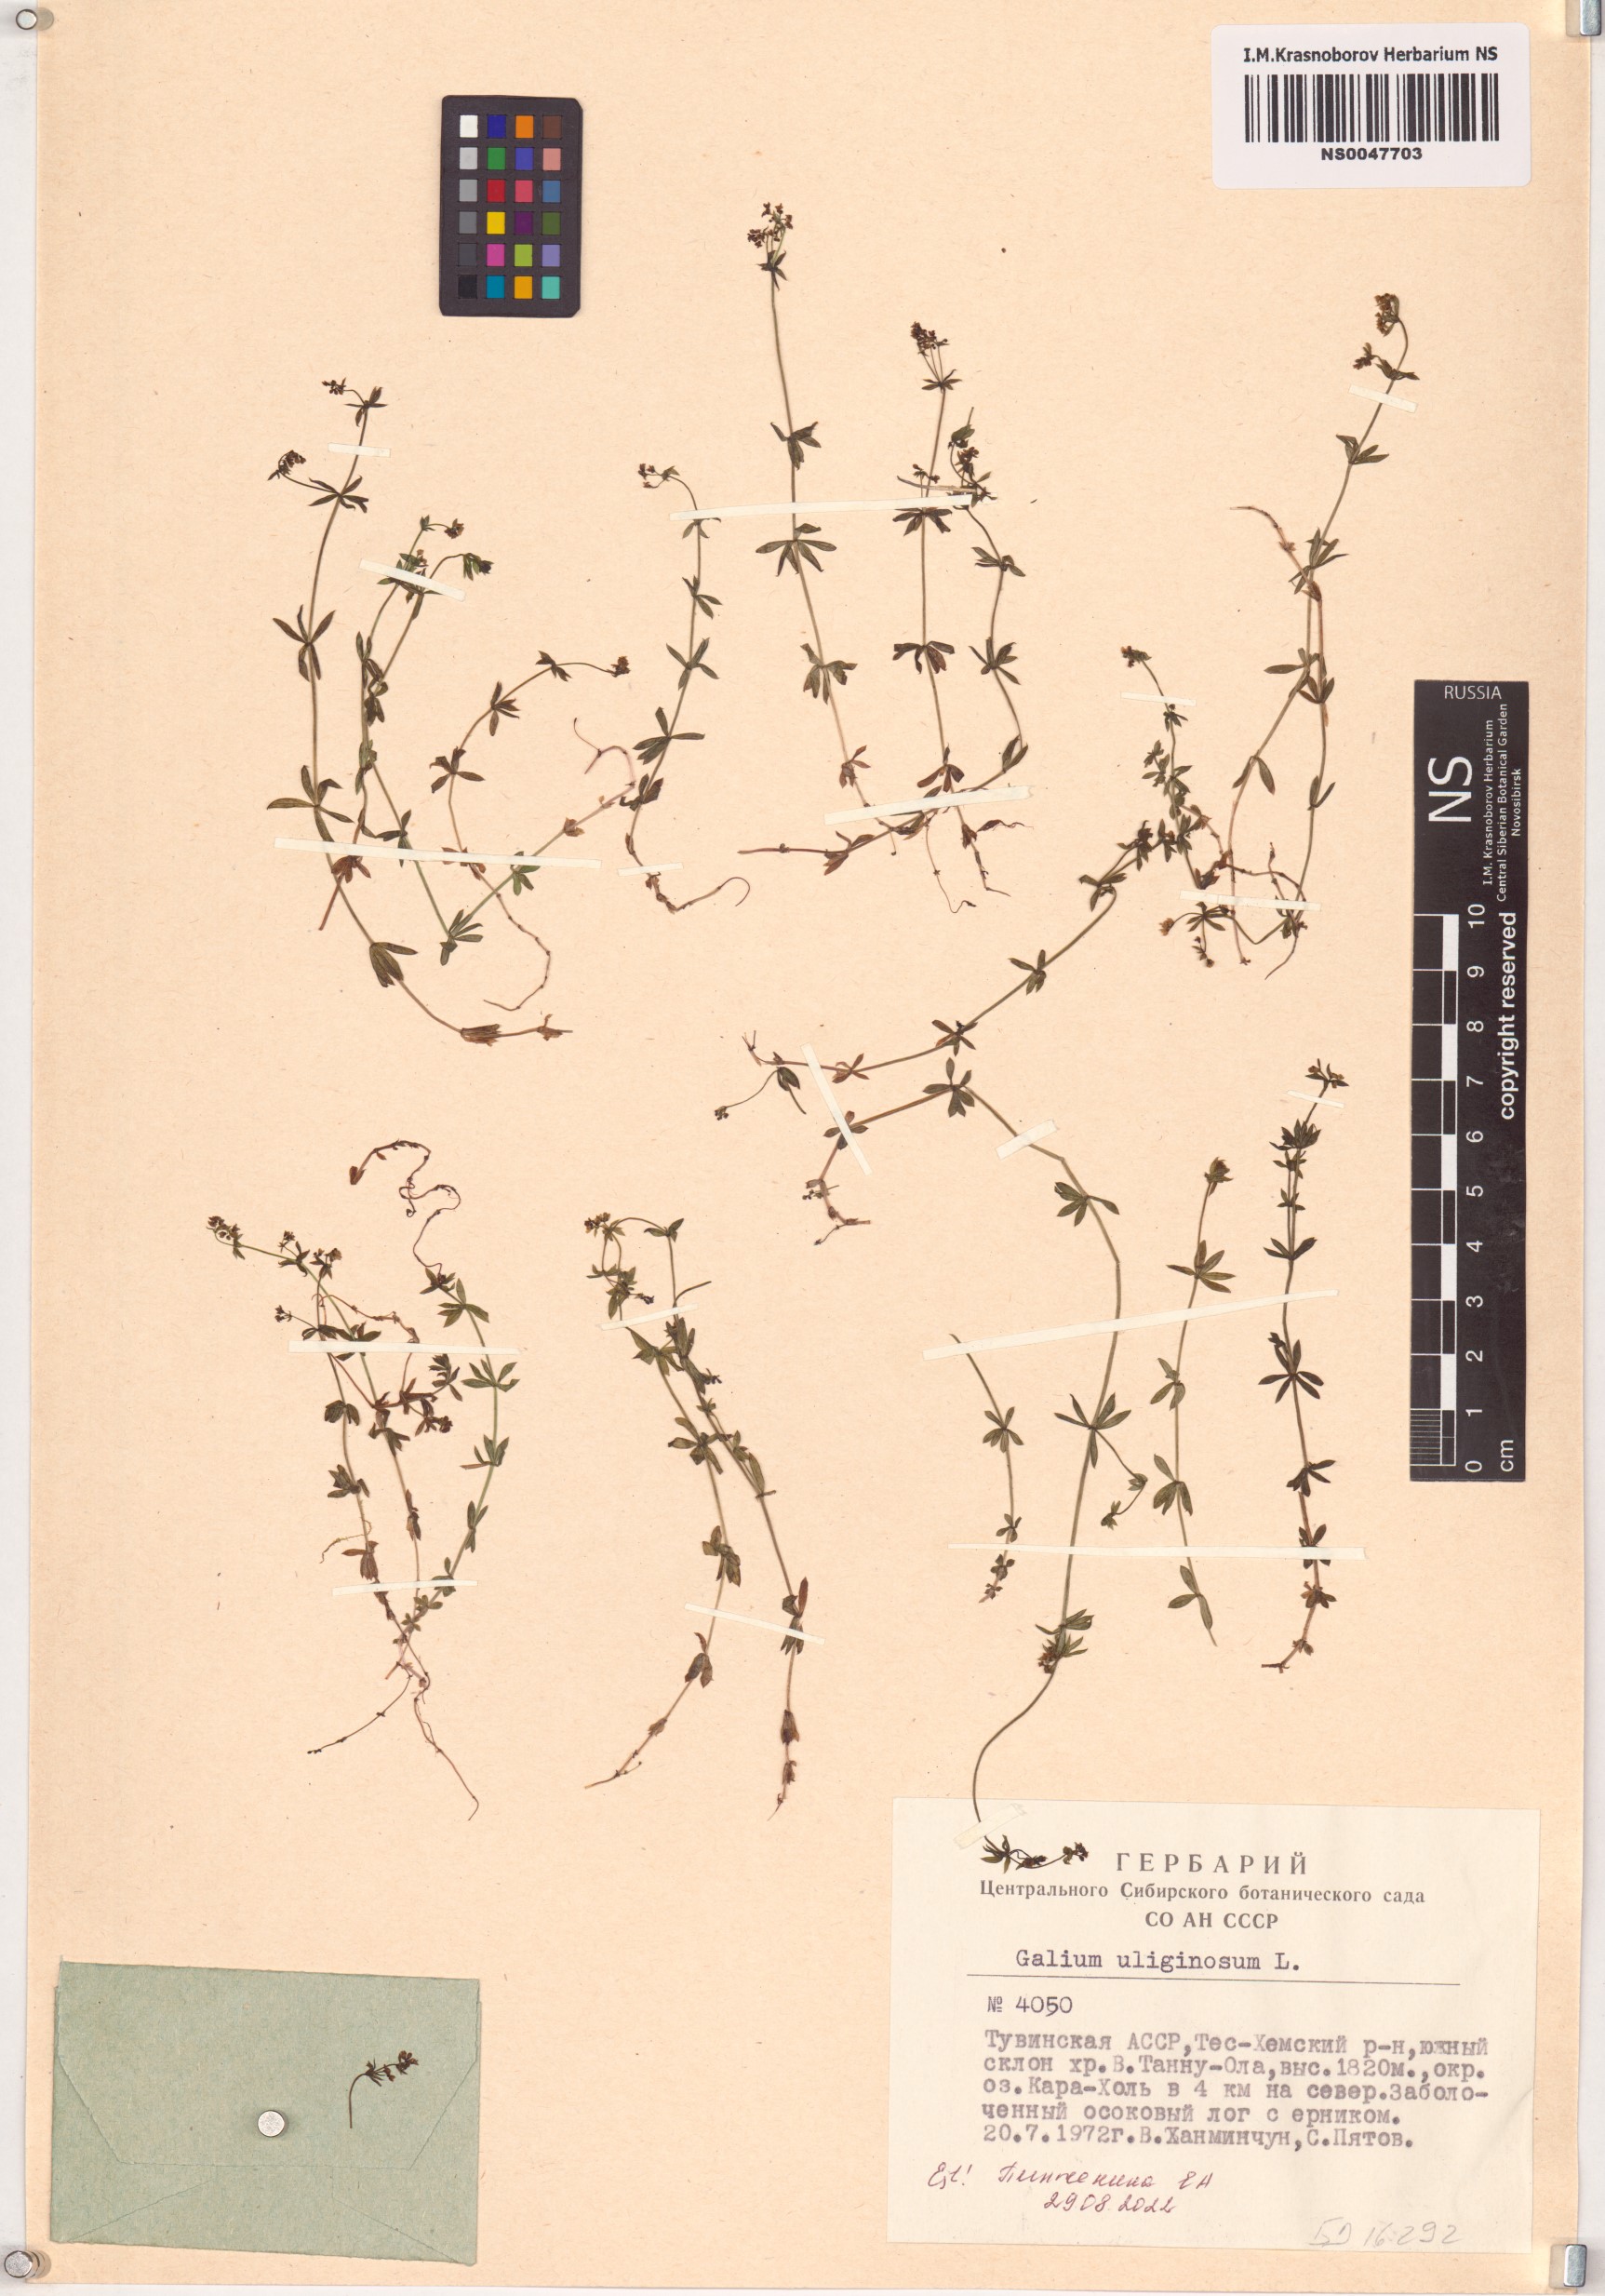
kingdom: Plantae
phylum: Tracheophyta
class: Magnoliopsida
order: Gentianales
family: Rubiaceae
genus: Galium
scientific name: Galium uliginosum
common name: Fen bedstraw
